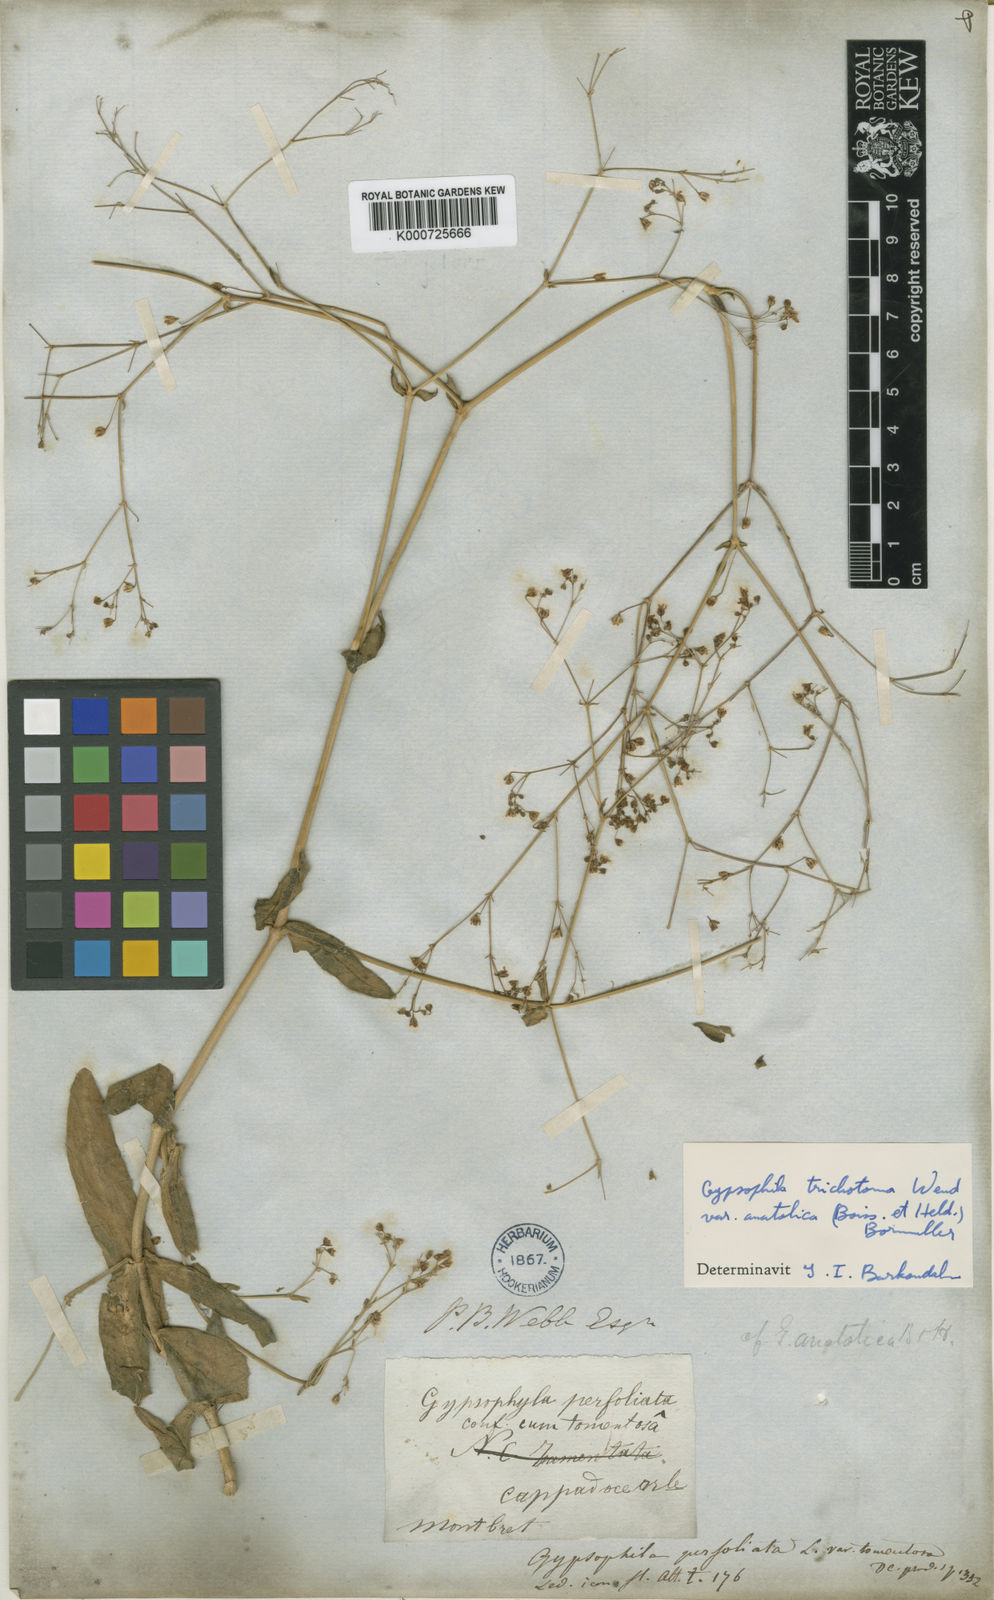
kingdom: Plantae
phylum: Tracheophyta
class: Magnoliopsida
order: Caryophyllales
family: Caryophyllaceae
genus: Gypsophila
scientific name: Gypsophila perfoliata
